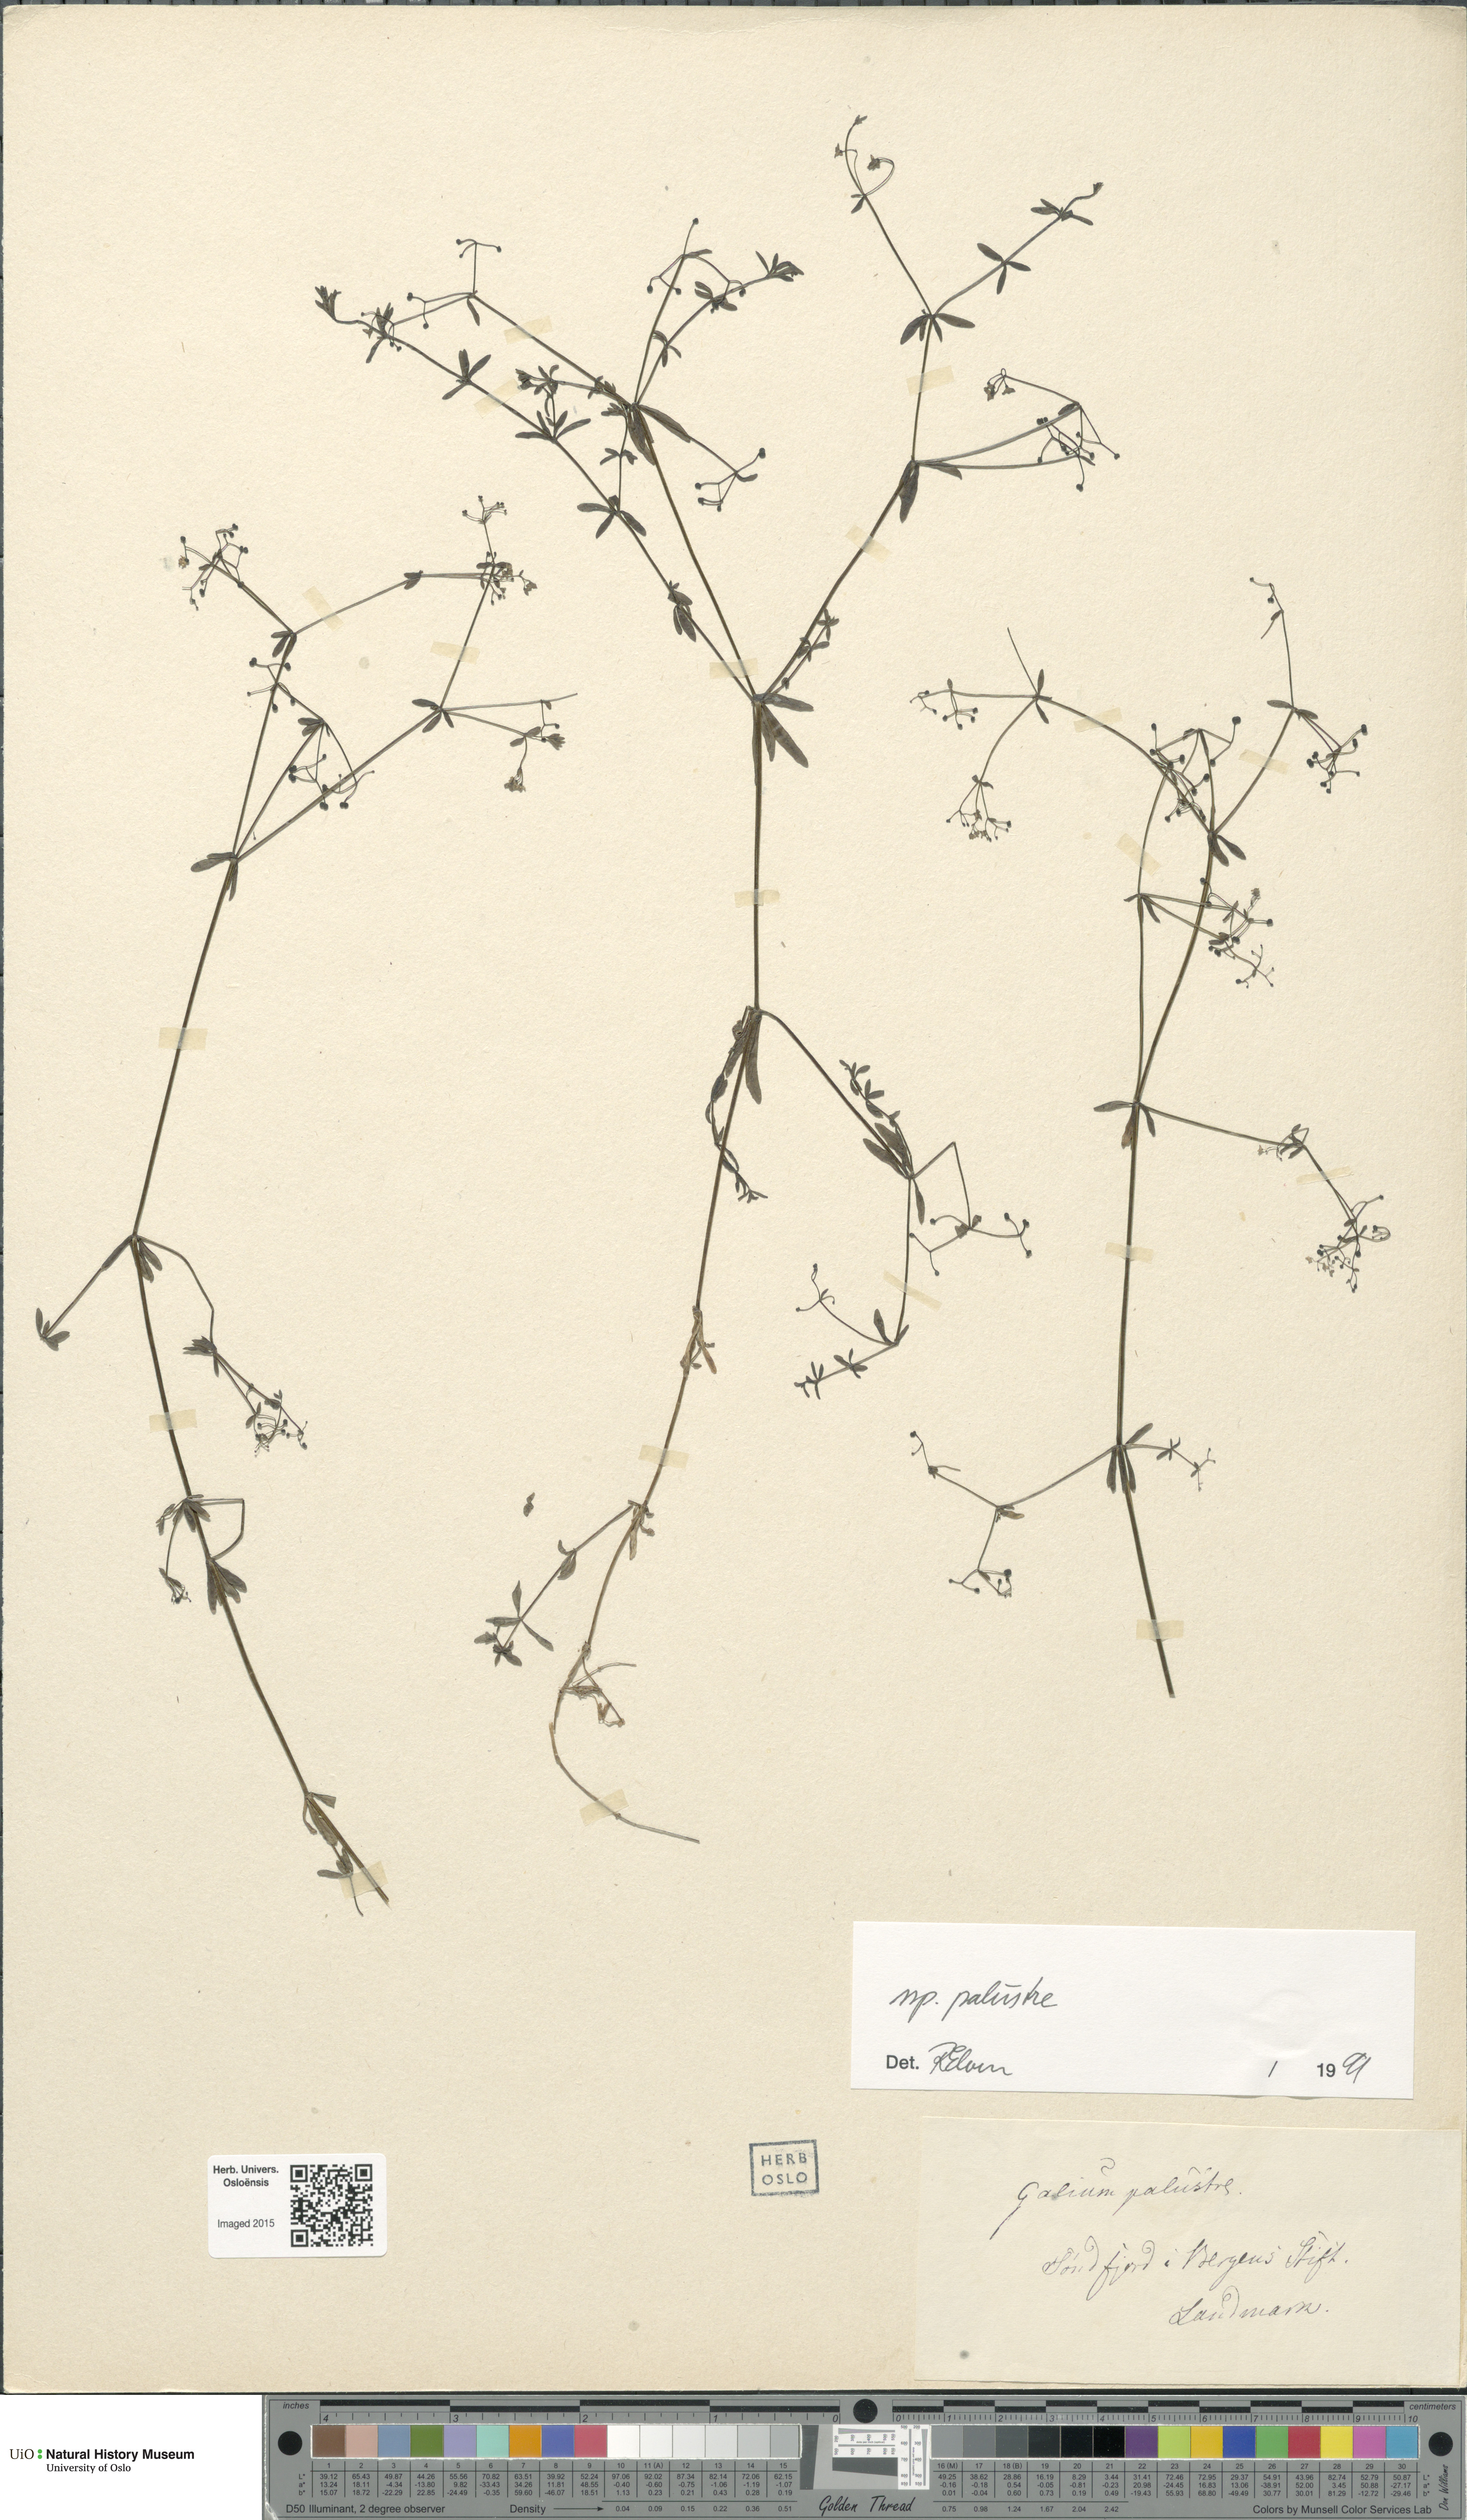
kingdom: Plantae
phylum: Tracheophyta
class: Magnoliopsida
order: Gentianales
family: Rubiaceae
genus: Galium
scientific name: Galium palustre
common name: Common marsh-bedstraw
